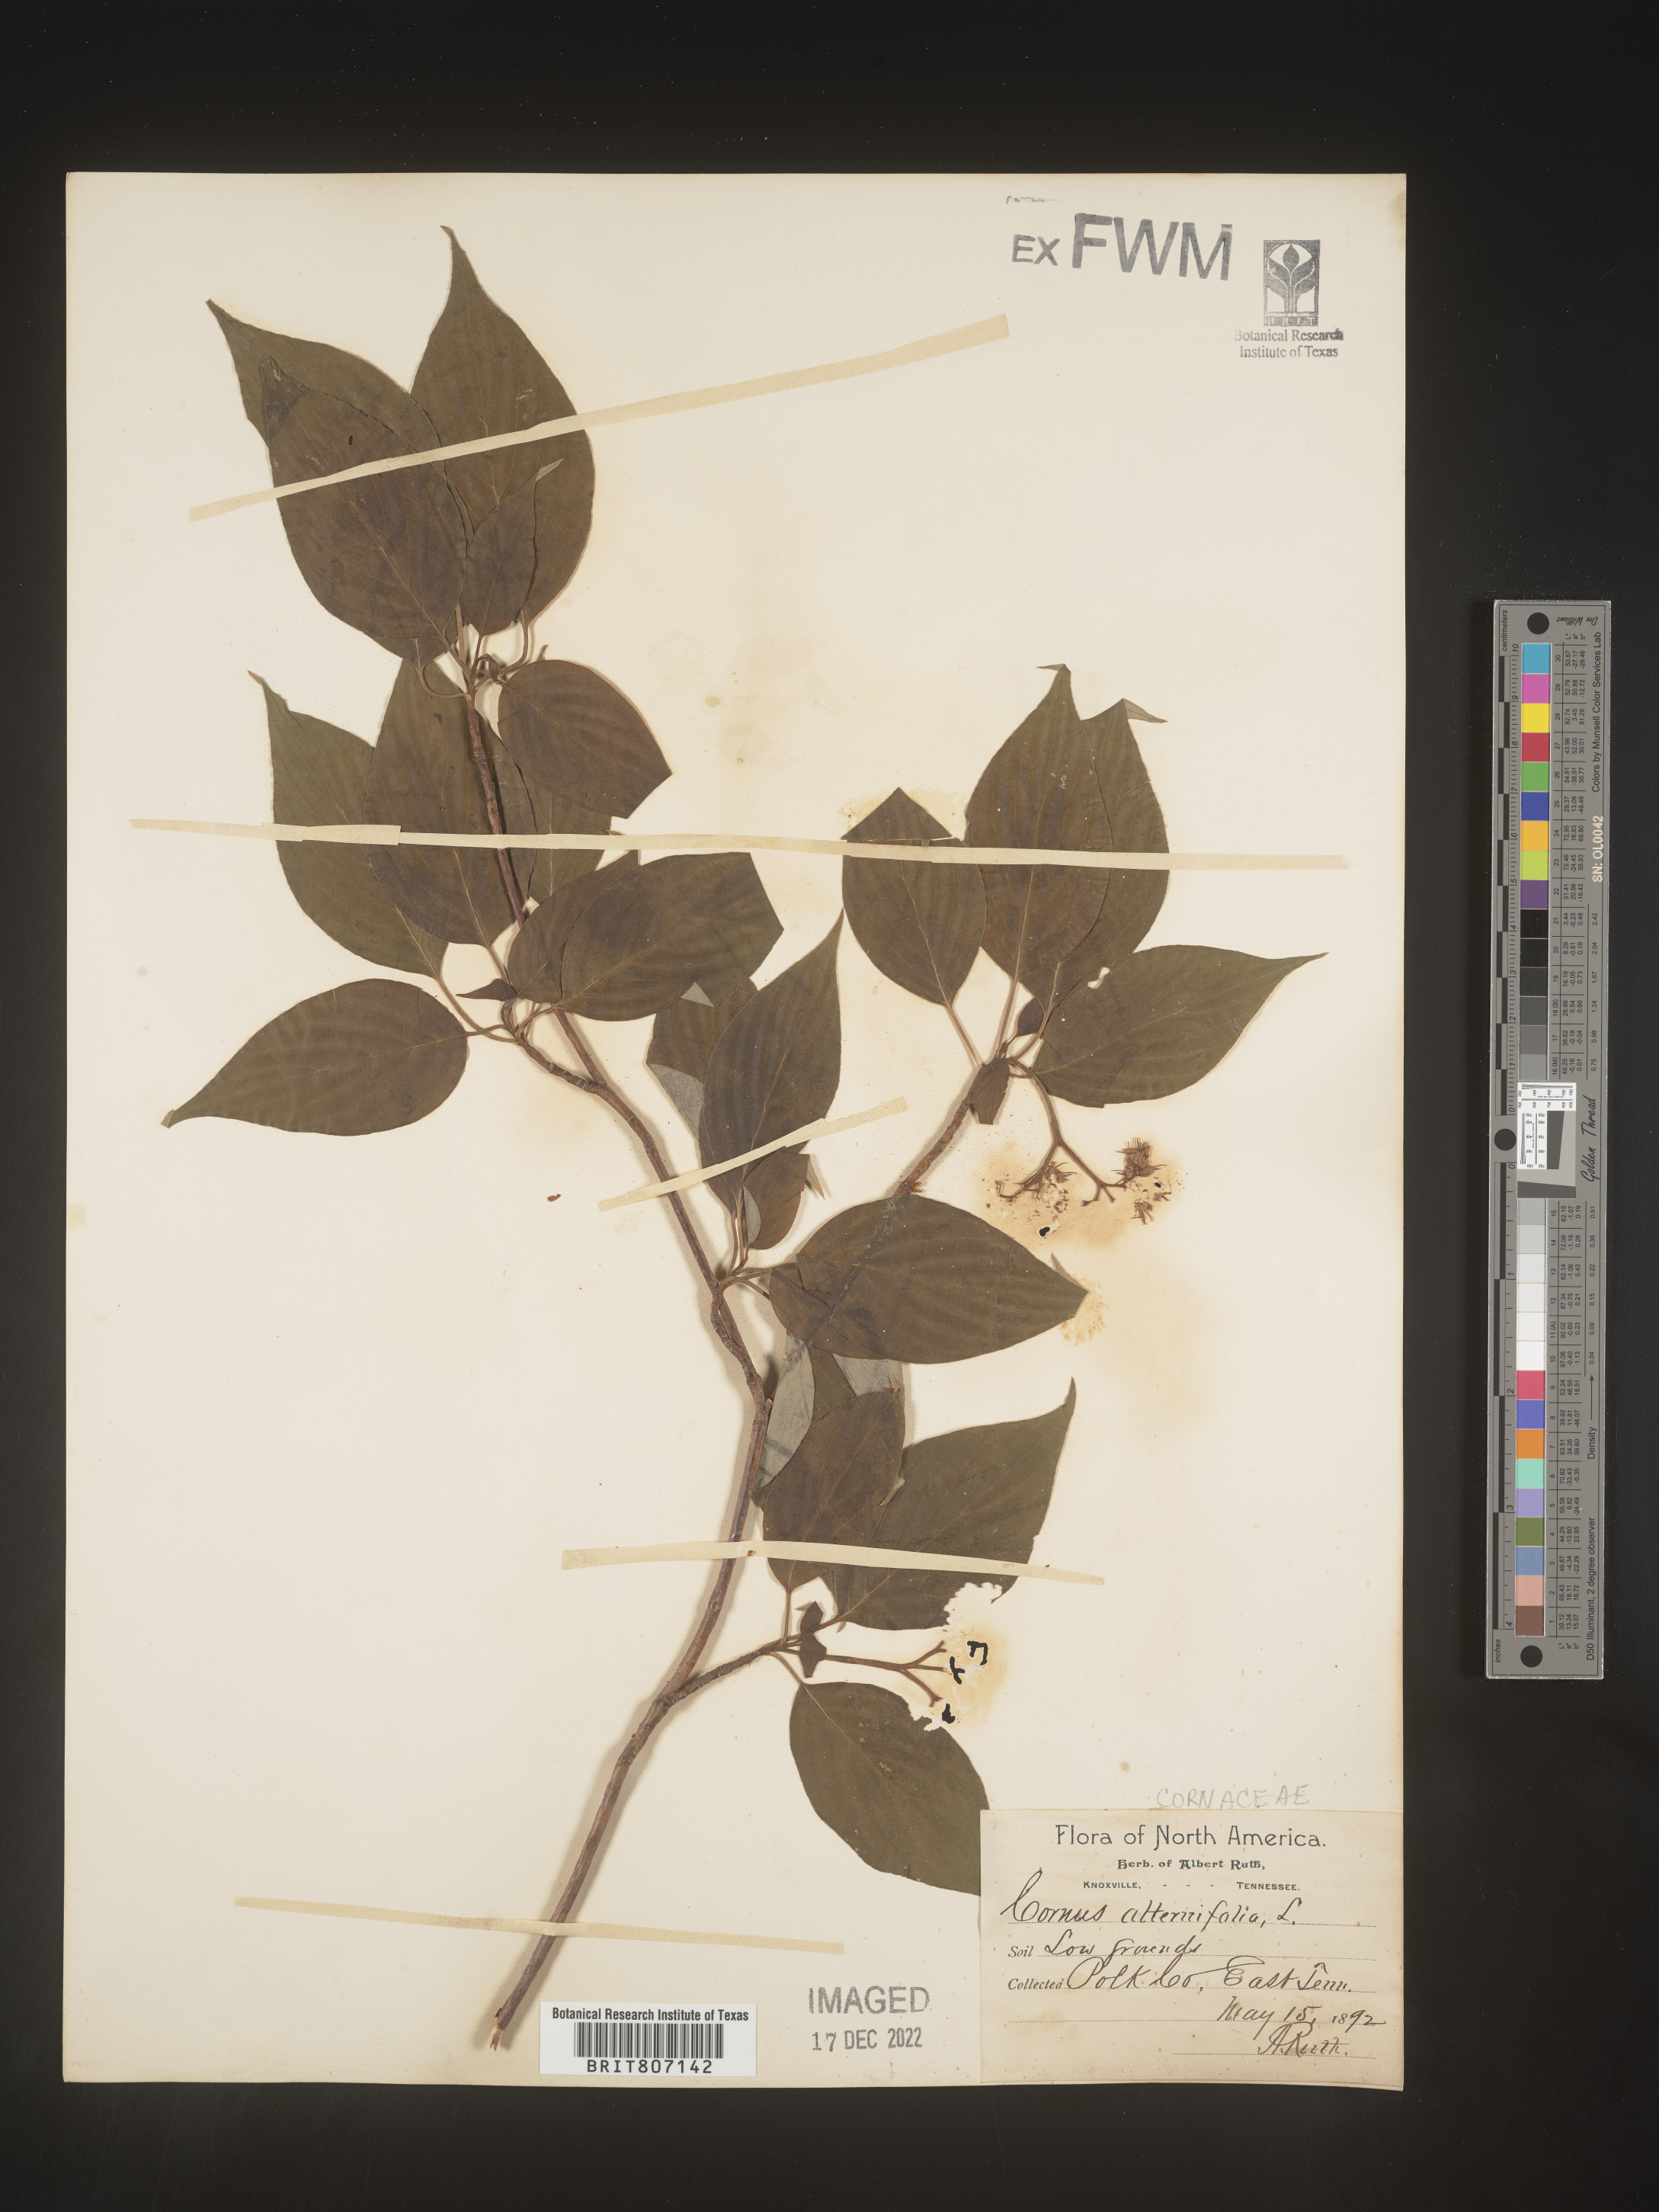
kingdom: Plantae
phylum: Tracheophyta
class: Magnoliopsida
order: Cornales
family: Cornaceae
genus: Cornus
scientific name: Cornus alternifolia
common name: Pagoda dogwood
